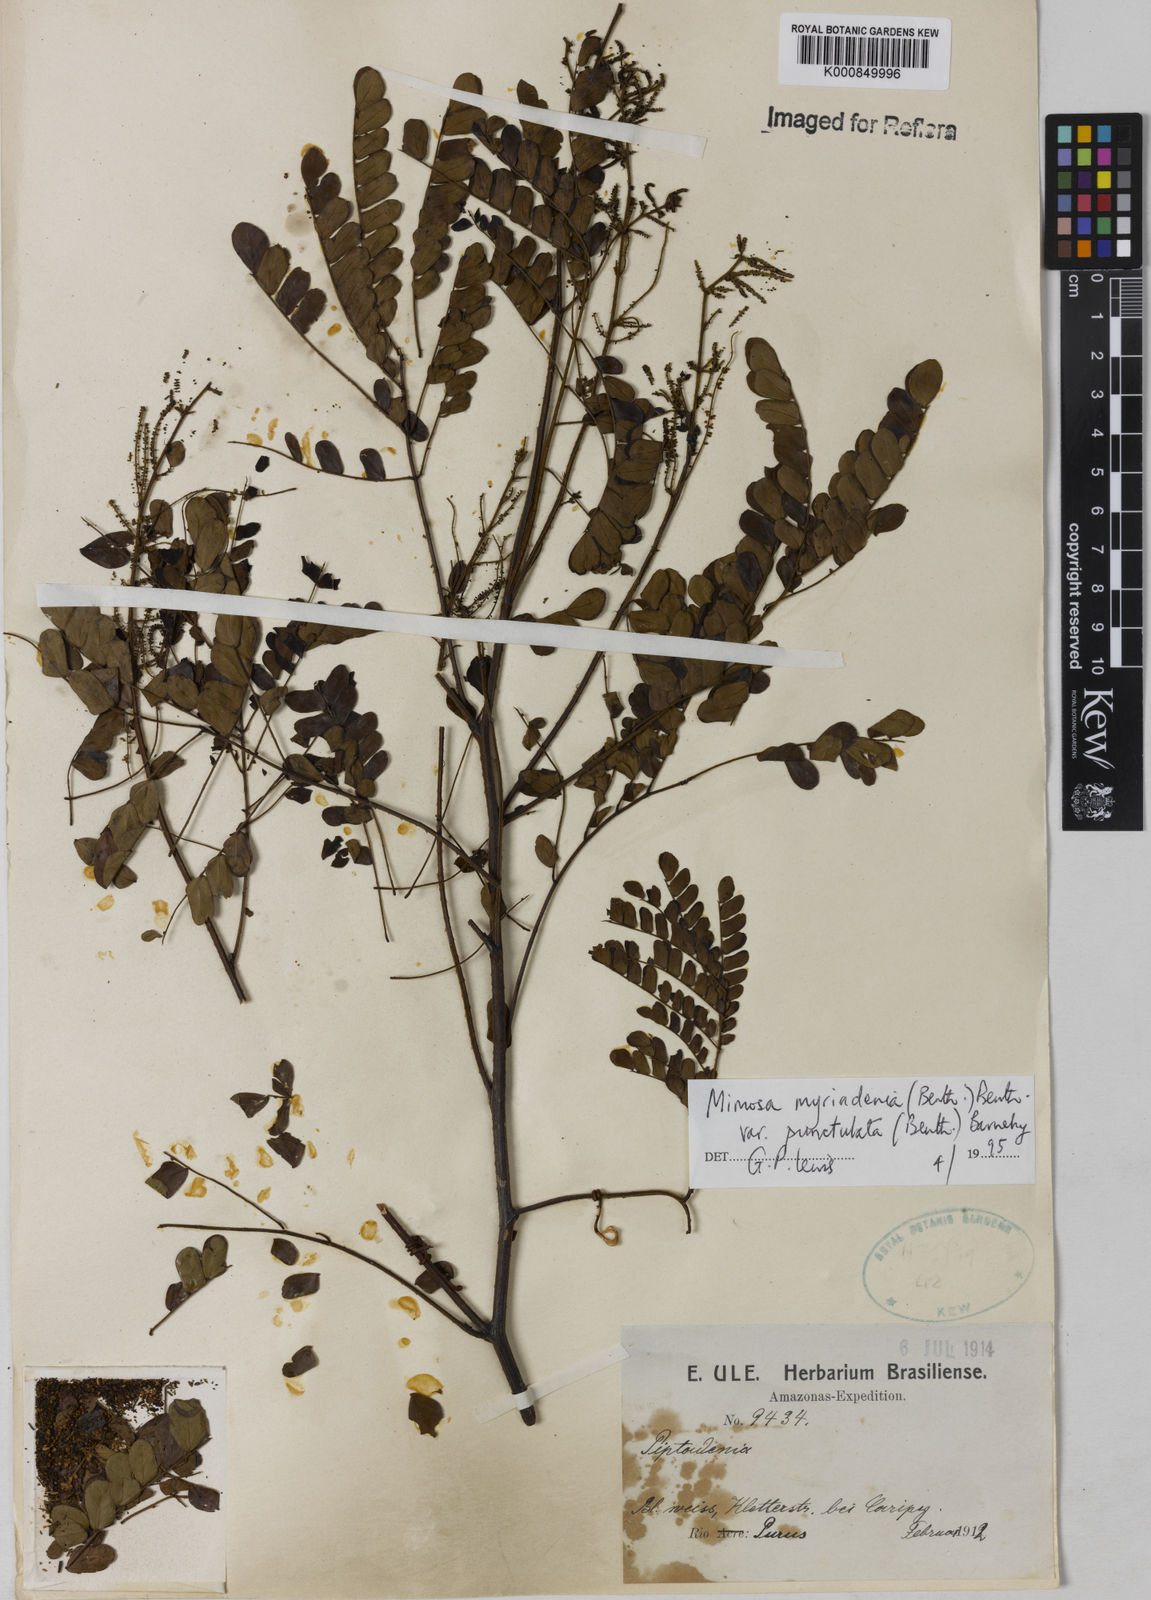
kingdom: Plantae
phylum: Tracheophyta
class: Magnoliopsida
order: Fabales
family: Fabaceae
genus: Mimosa
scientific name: Mimosa myriadenia
